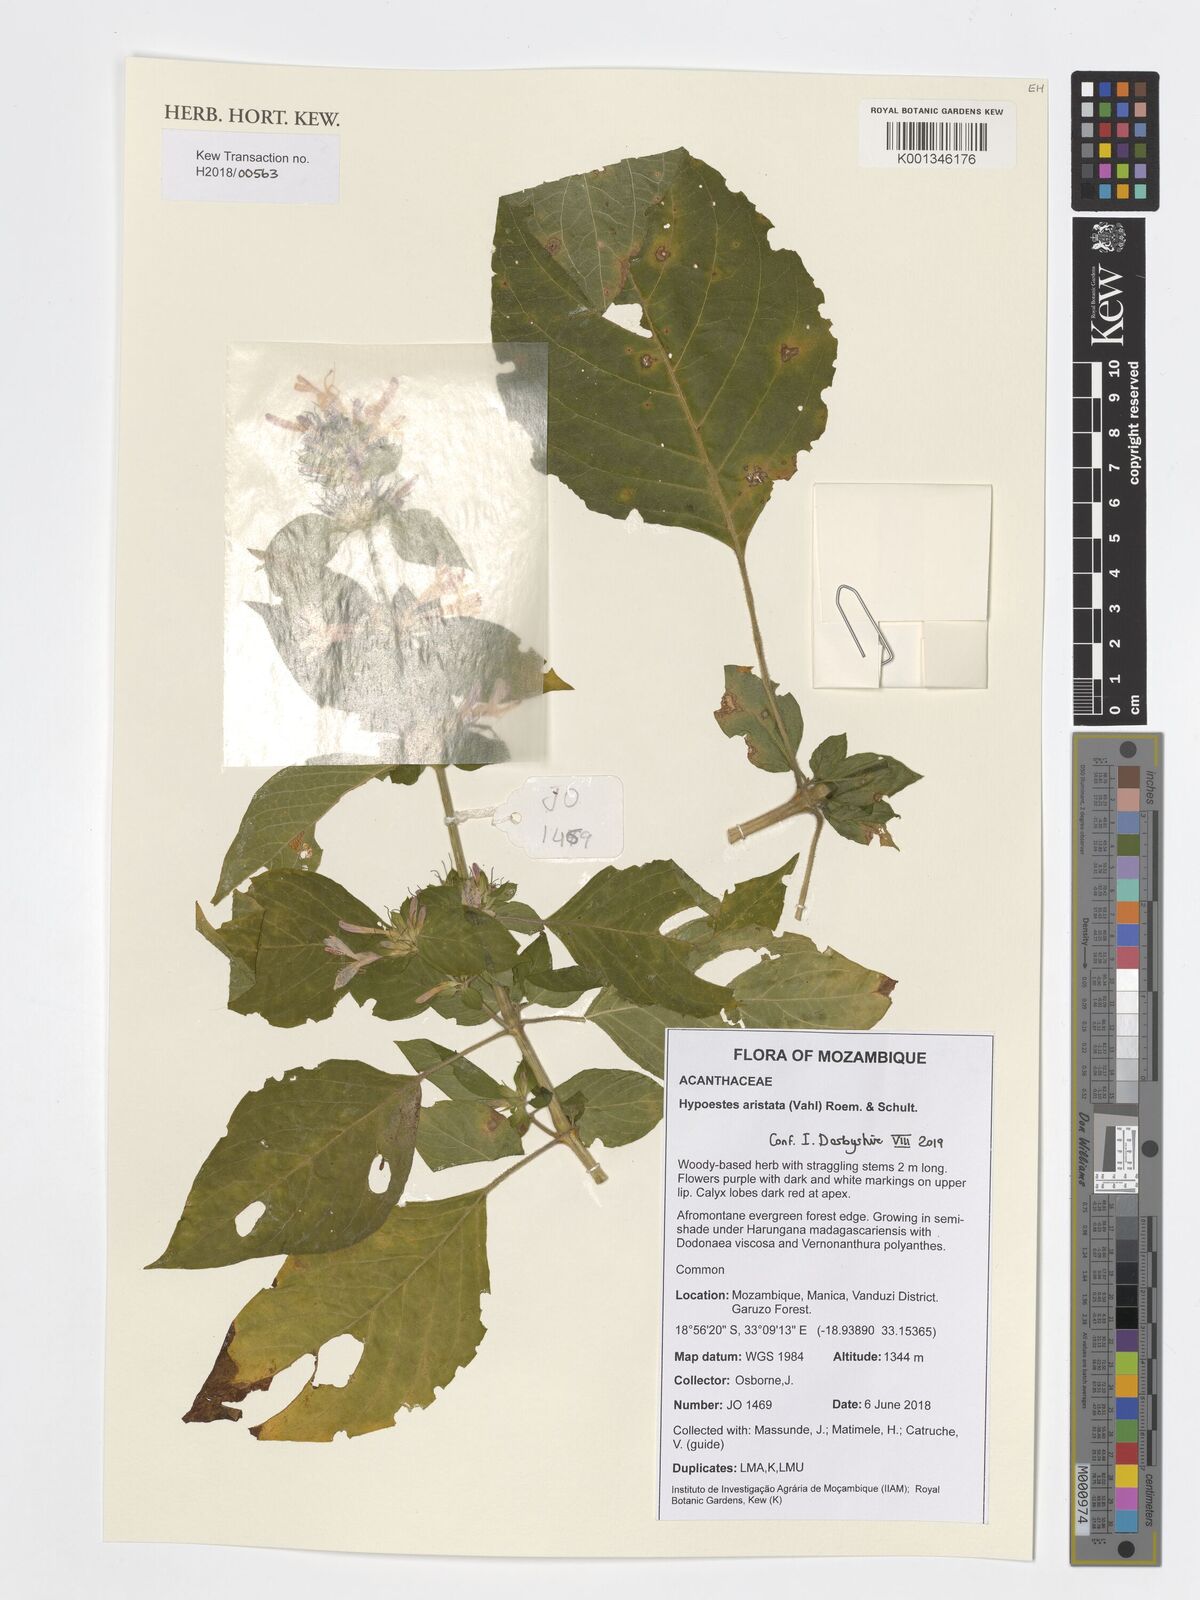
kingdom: Plantae
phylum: Tracheophyta
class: Magnoliopsida
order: Lamiales
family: Acanthaceae
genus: Hypoestes
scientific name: Hypoestes aristata
